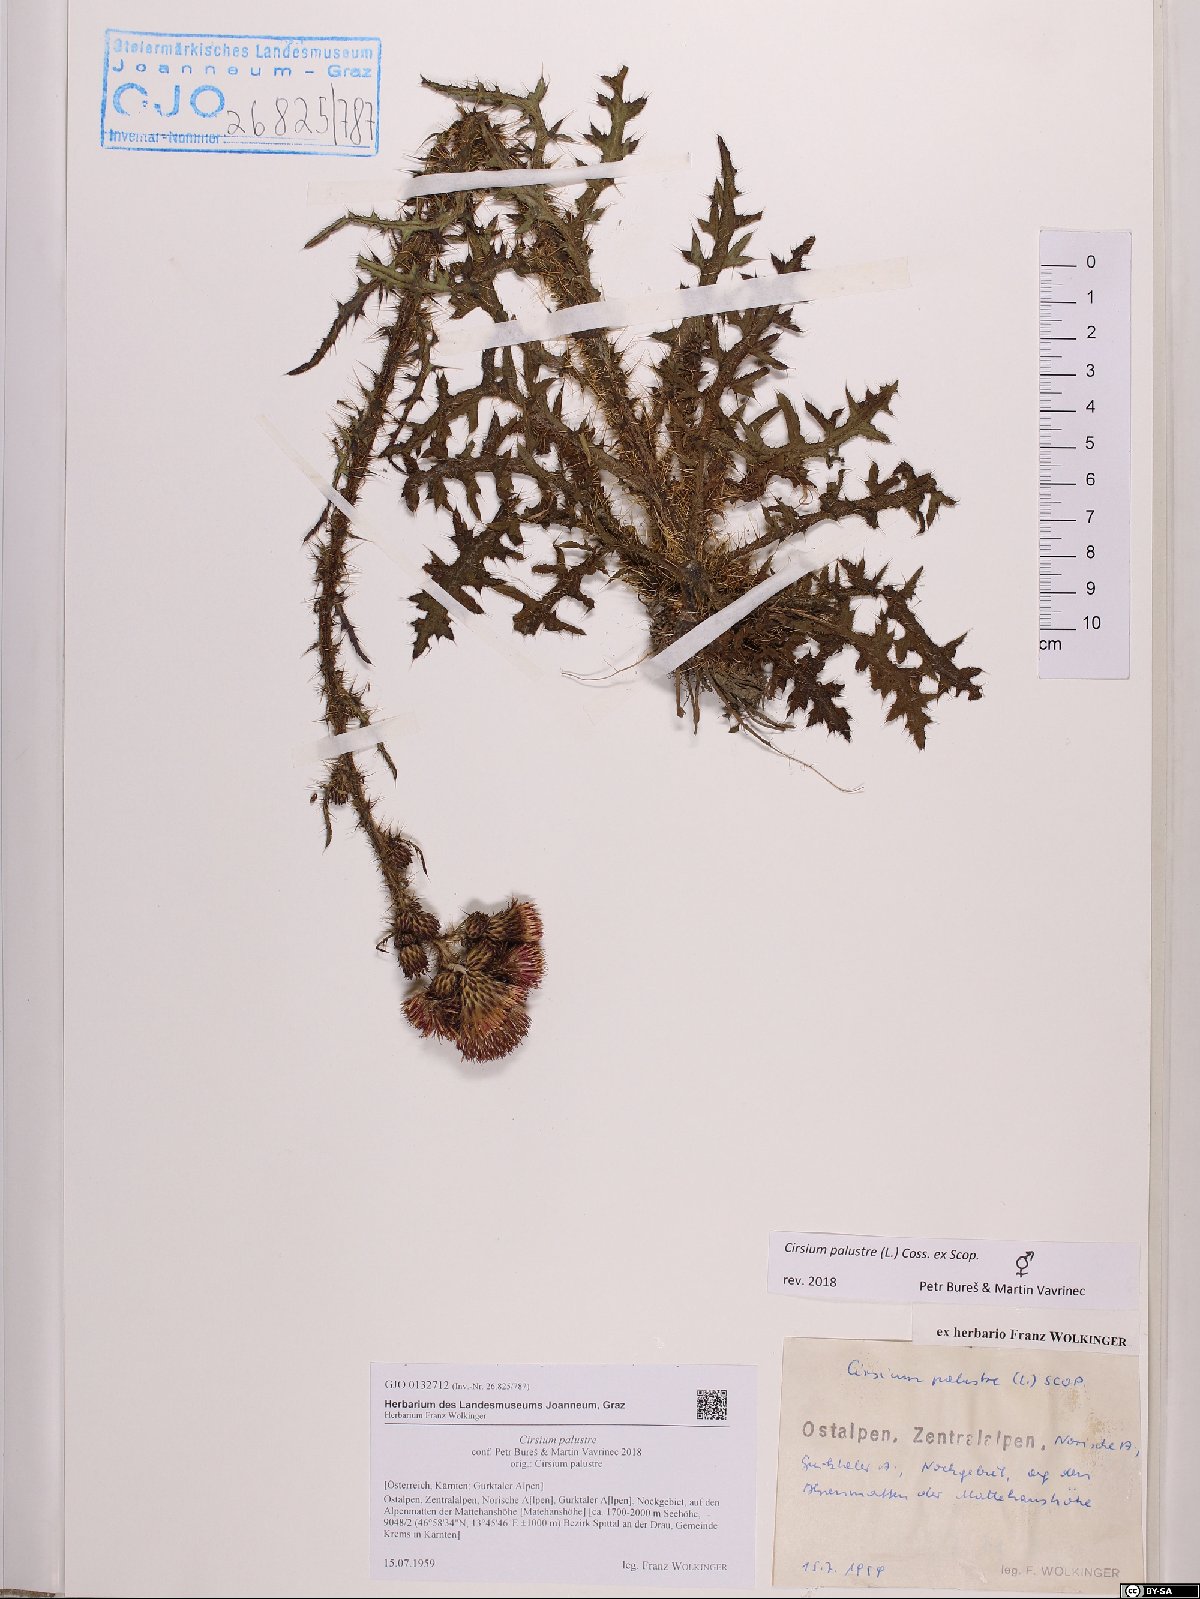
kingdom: Plantae
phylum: Tracheophyta
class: Magnoliopsida
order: Asterales
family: Asteraceae
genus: Cirsium
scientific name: Cirsium palustre
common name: Marsh thistle
